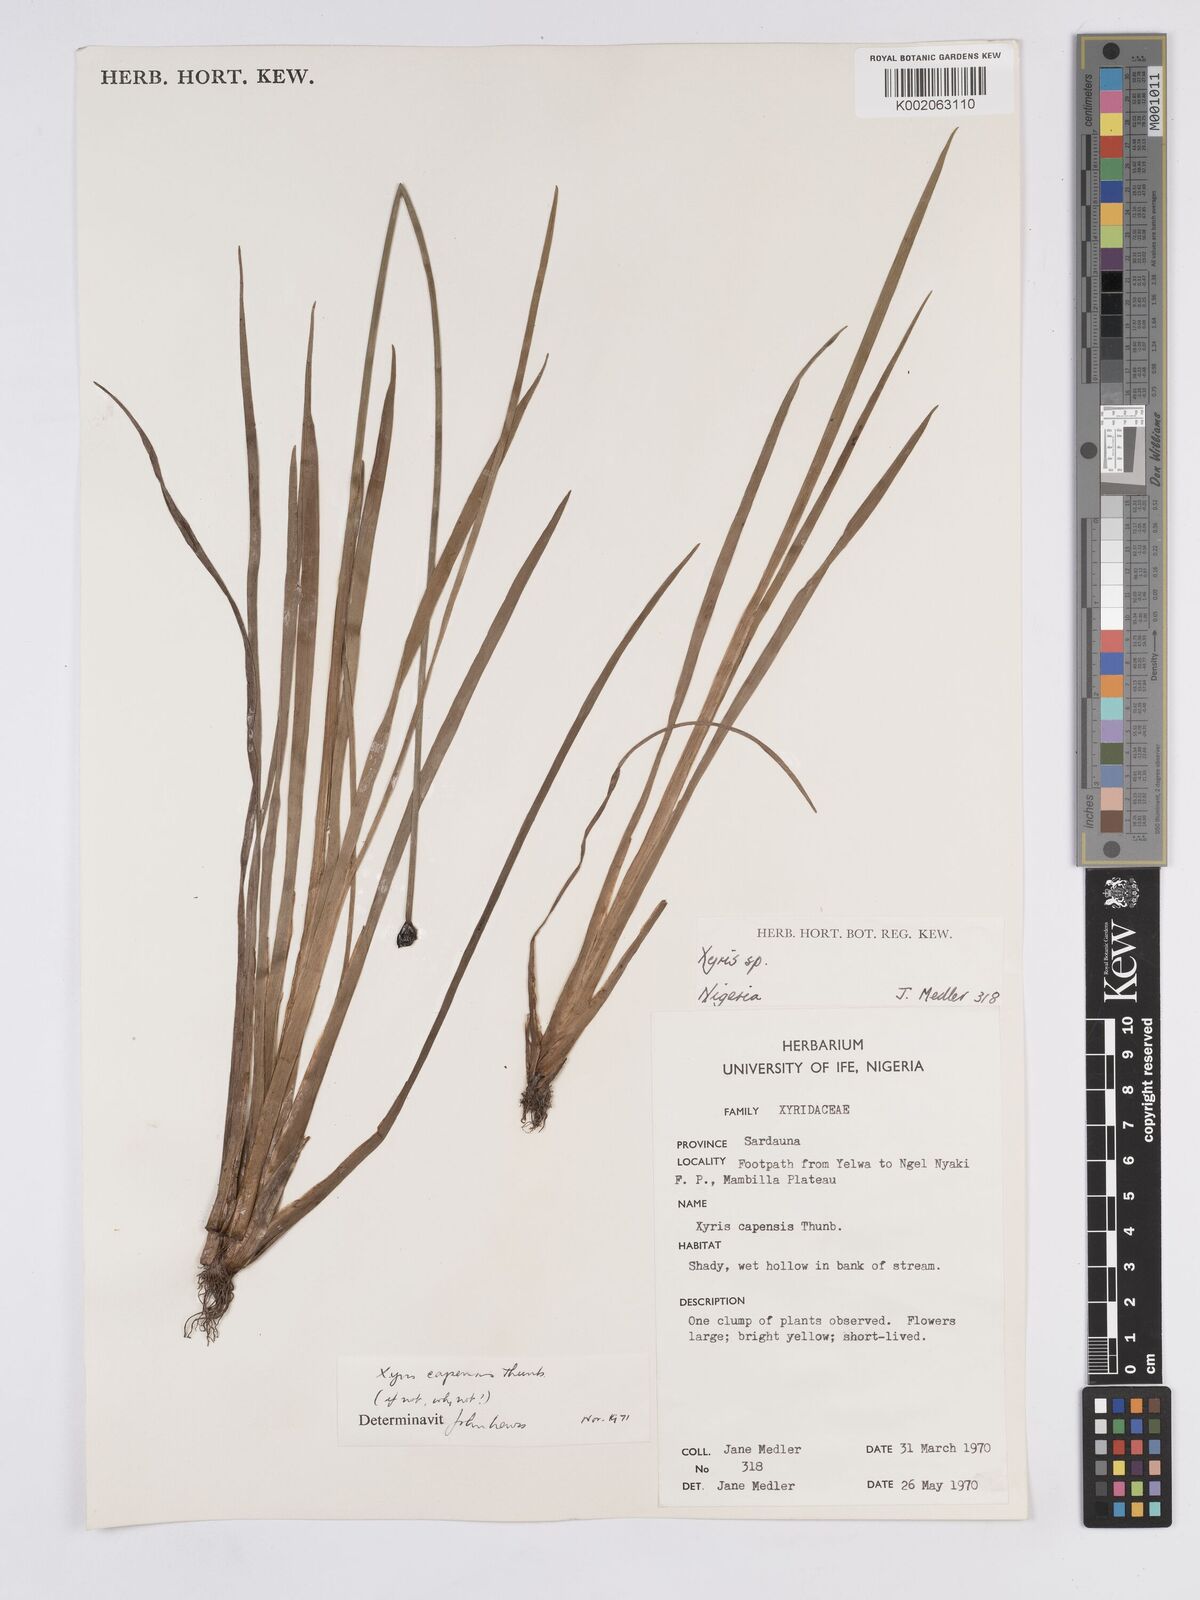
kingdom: Plantae
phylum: Tracheophyta
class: Liliopsida
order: Poales
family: Xyridaceae
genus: Xyris
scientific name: Xyris capensis
